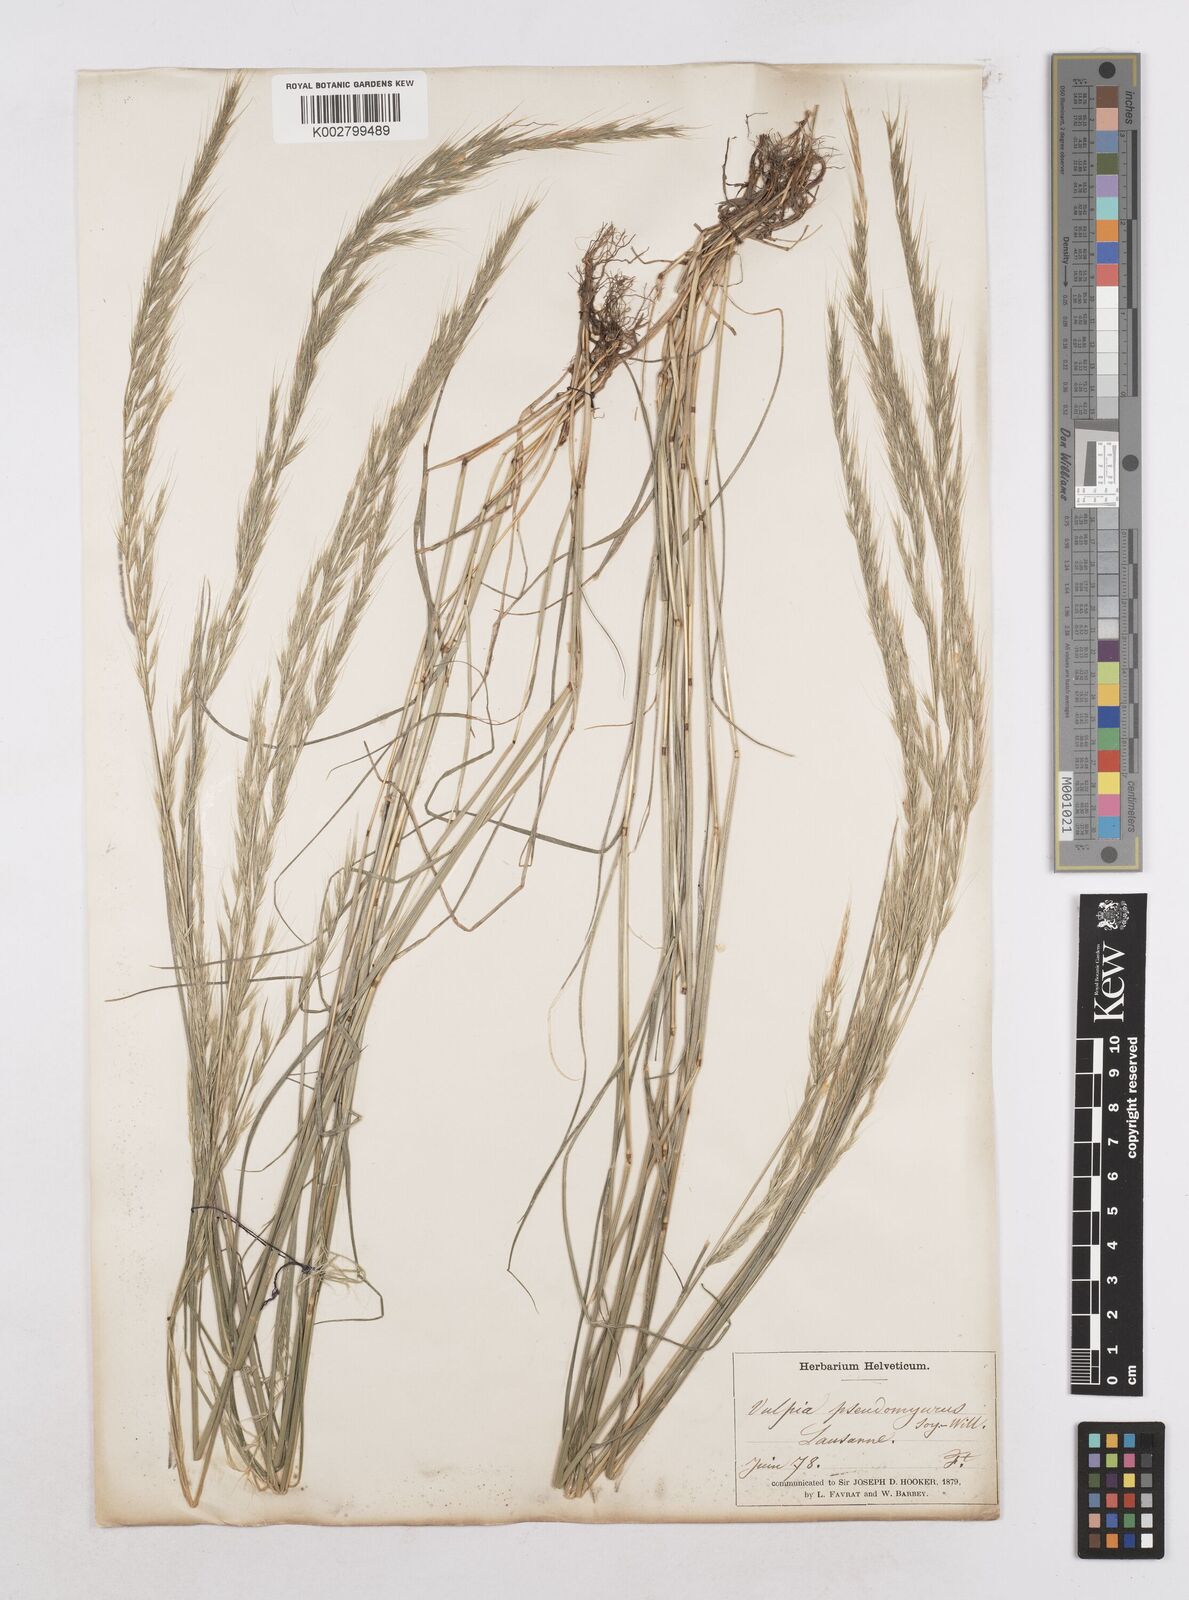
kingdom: Plantae
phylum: Tracheophyta
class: Liliopsida
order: Poales
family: Poaceae
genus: Festuca
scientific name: Festuca myuros
